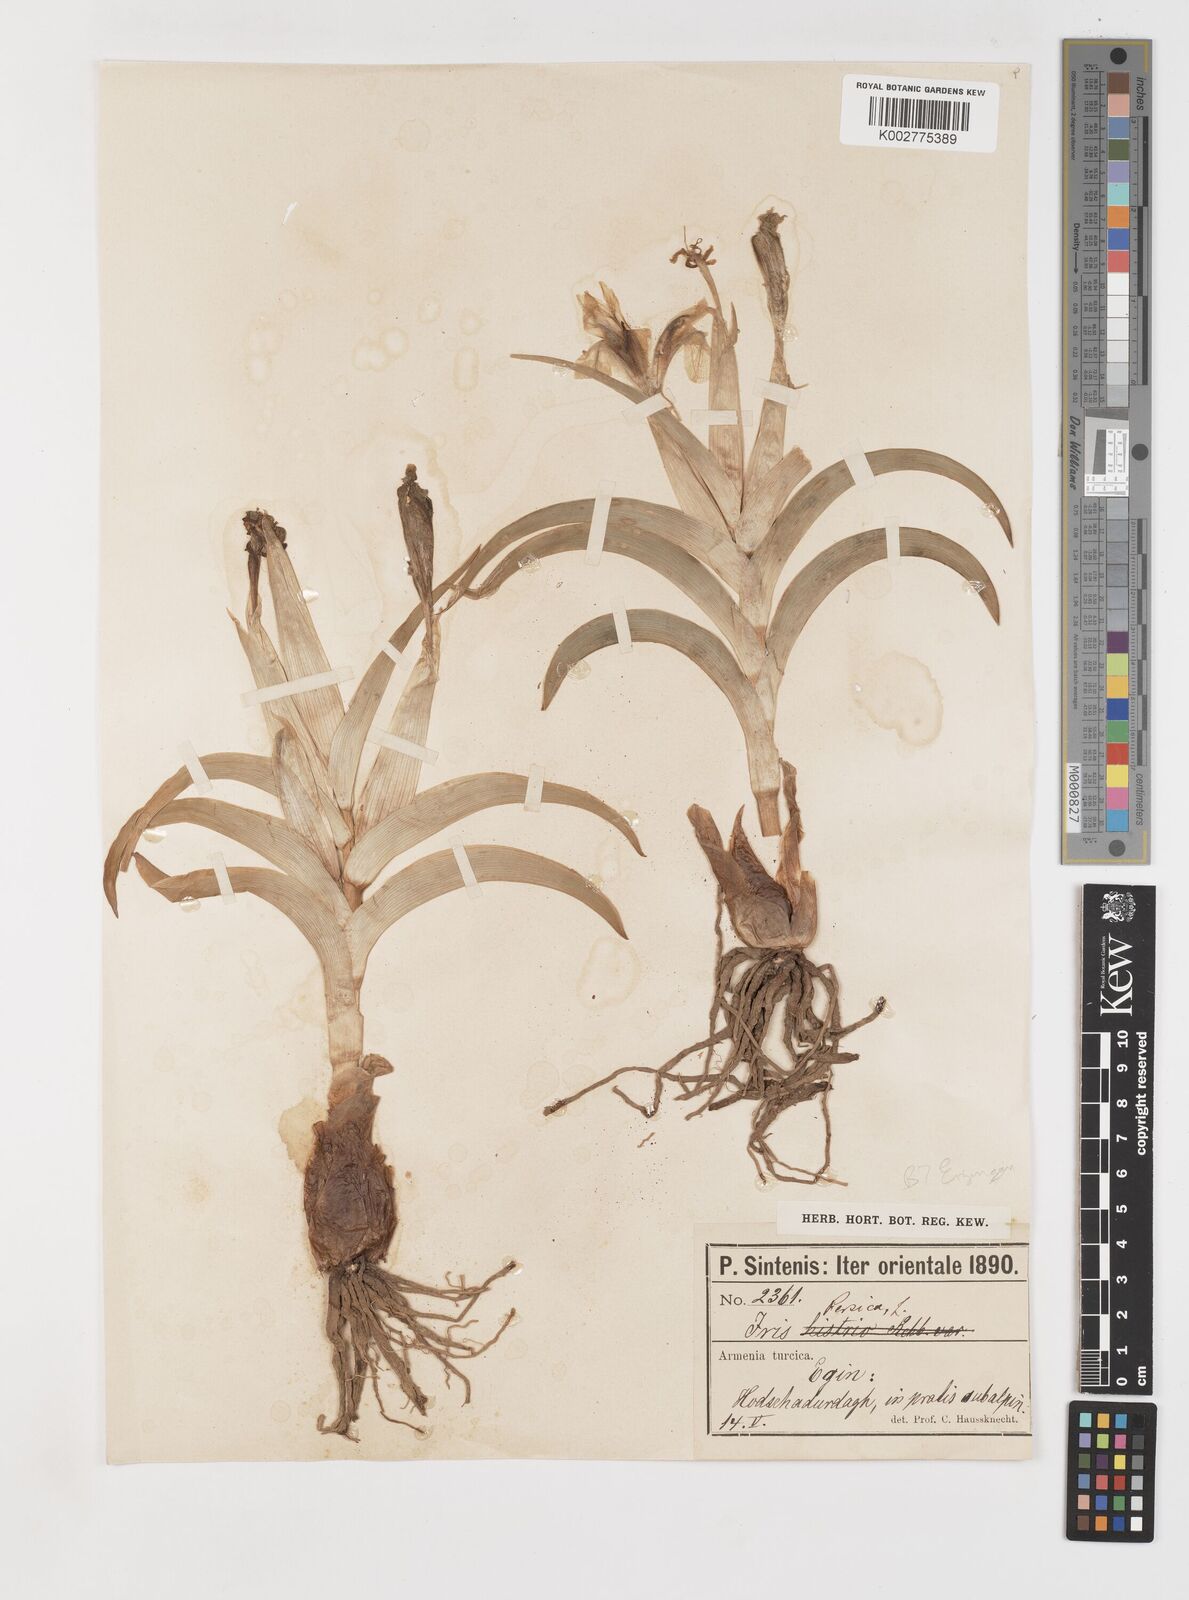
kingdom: Plantae
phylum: Tracheophyta
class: Liliopsida
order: Asparagales
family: Iridaceae
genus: Iris
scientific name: Iris caucasica
